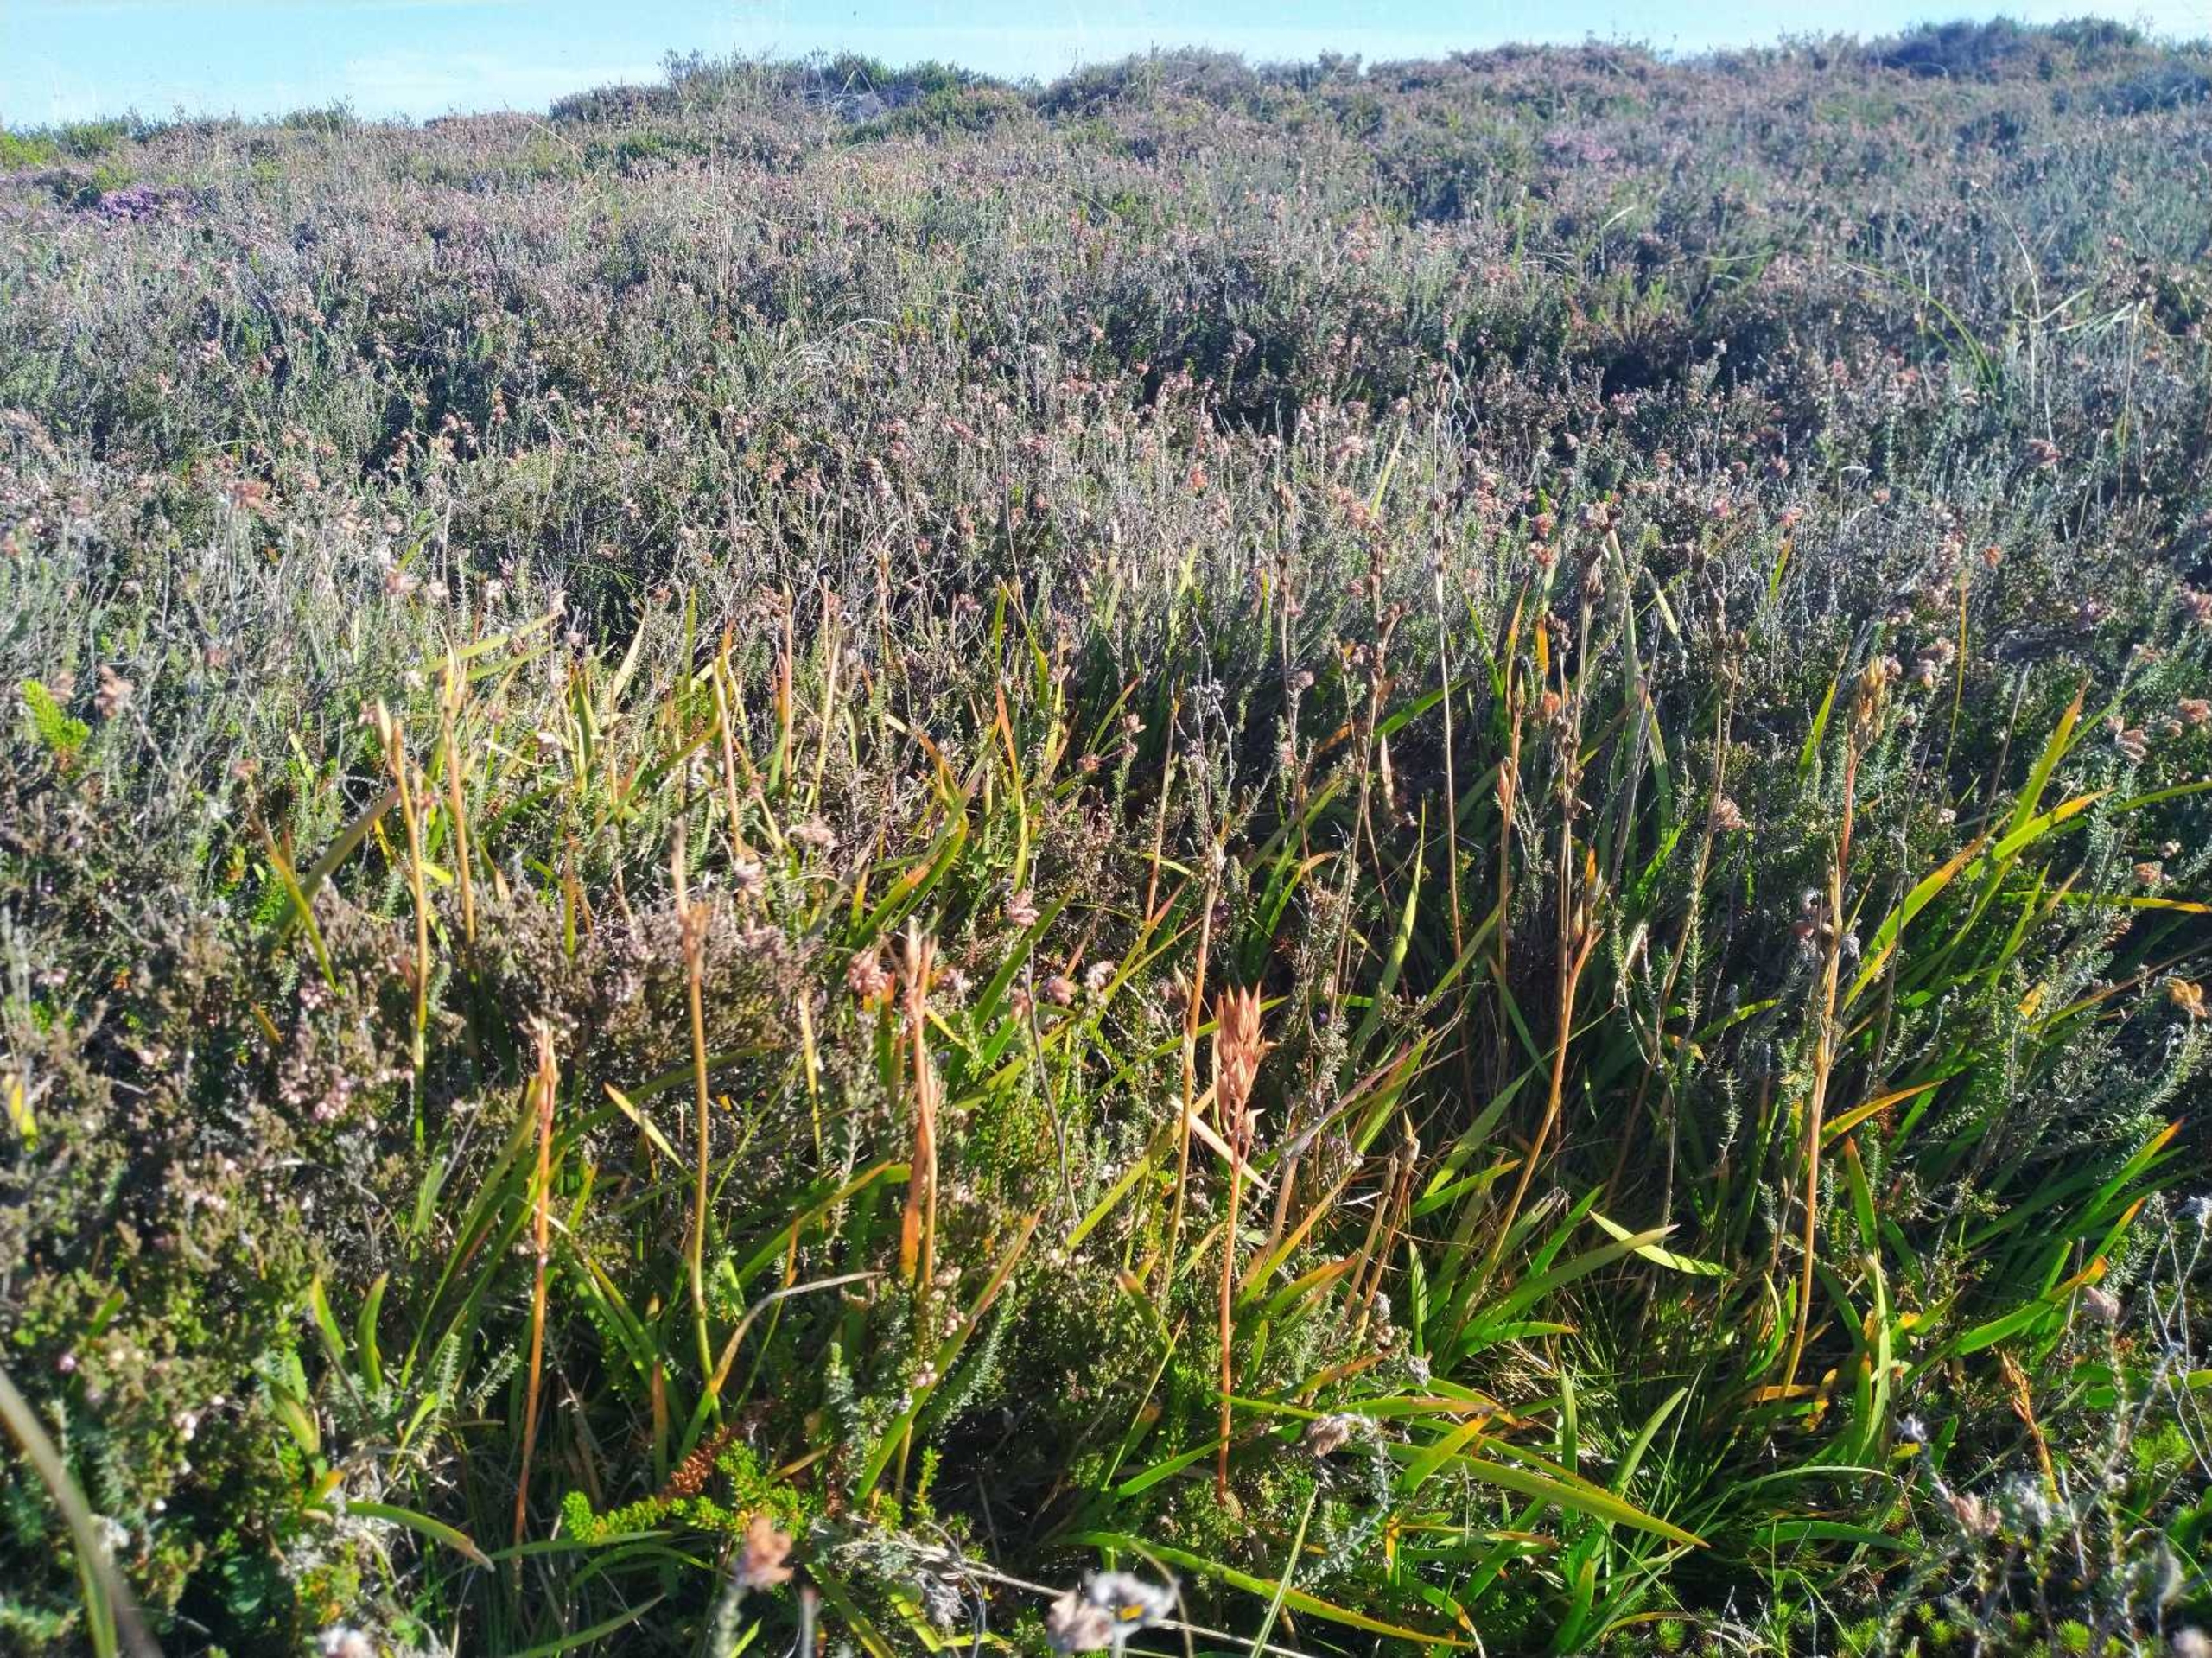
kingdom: Plantae
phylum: Tracheophyta
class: Liliopsida
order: Dioscoreales
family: Nartheciaceae
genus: Narthecium
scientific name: Narthecium ossifragum
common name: Benbræk
